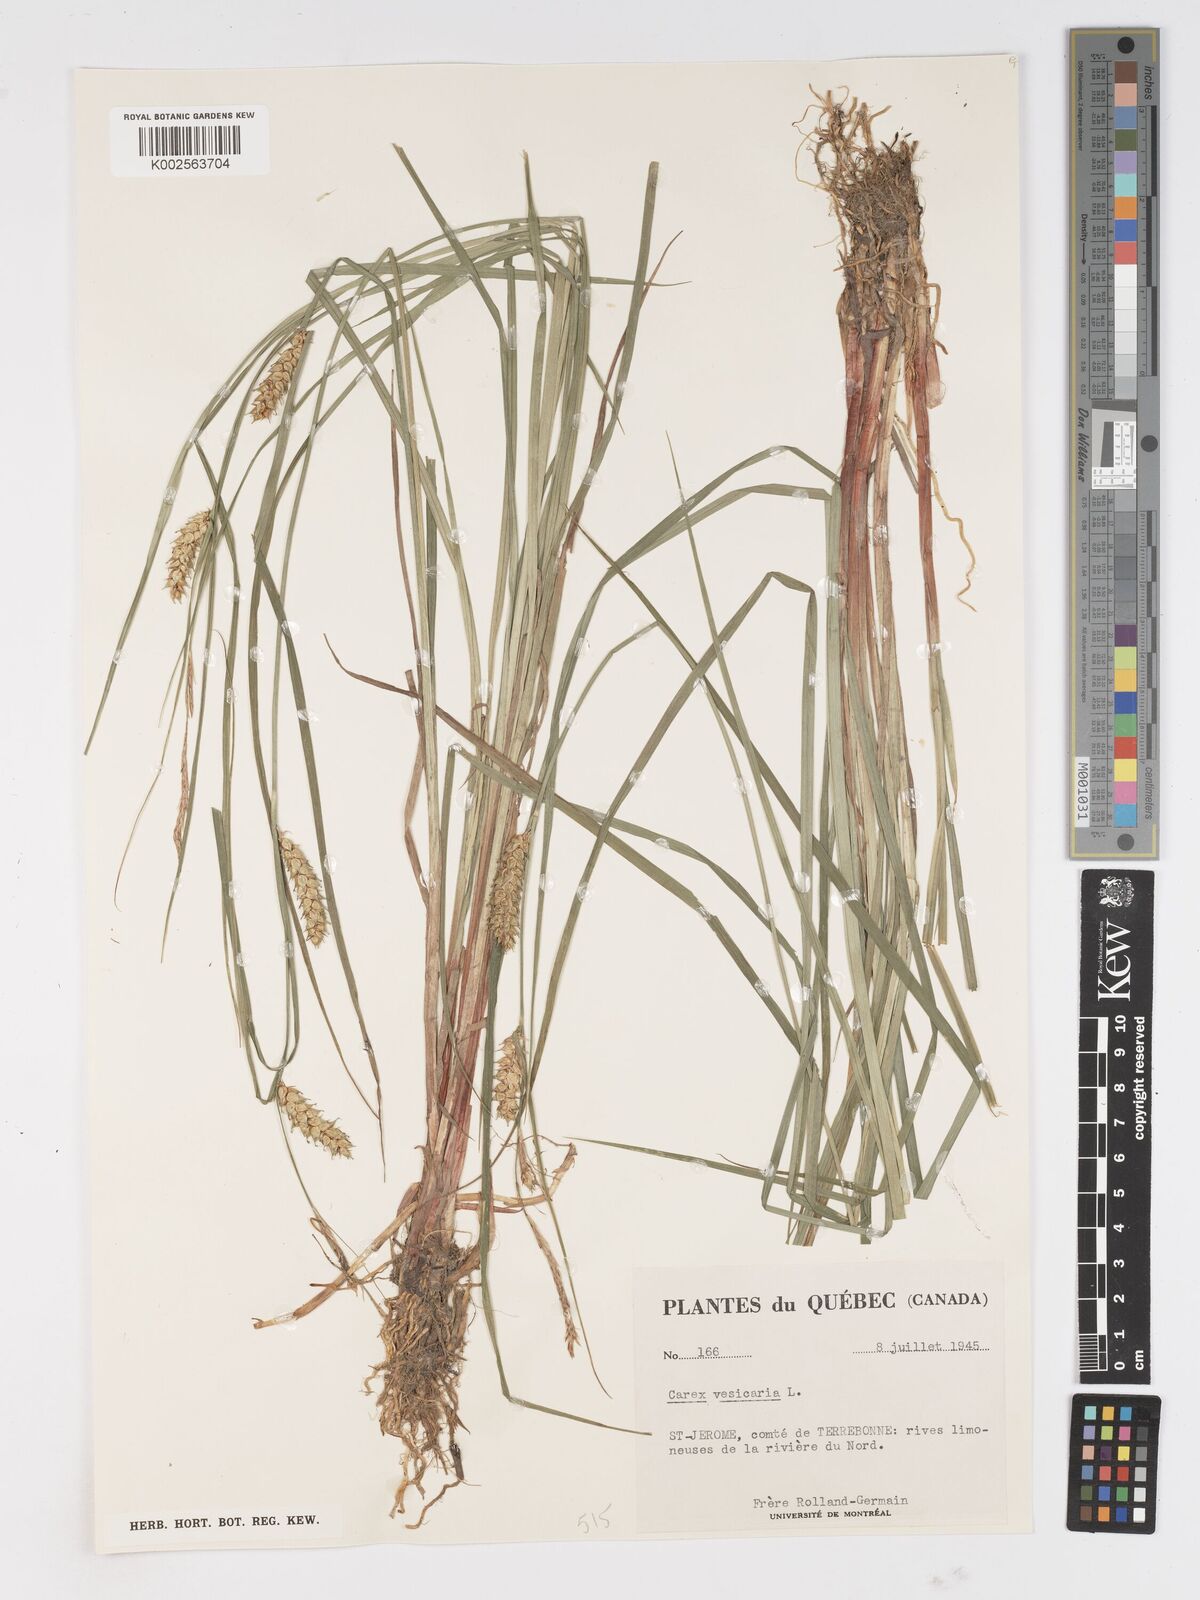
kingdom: Plantae
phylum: Tracheophyta
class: Liliopsida
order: Poales
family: Cyperaceae
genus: Carex
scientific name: Carex vesicaria
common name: Bladder-sedge
